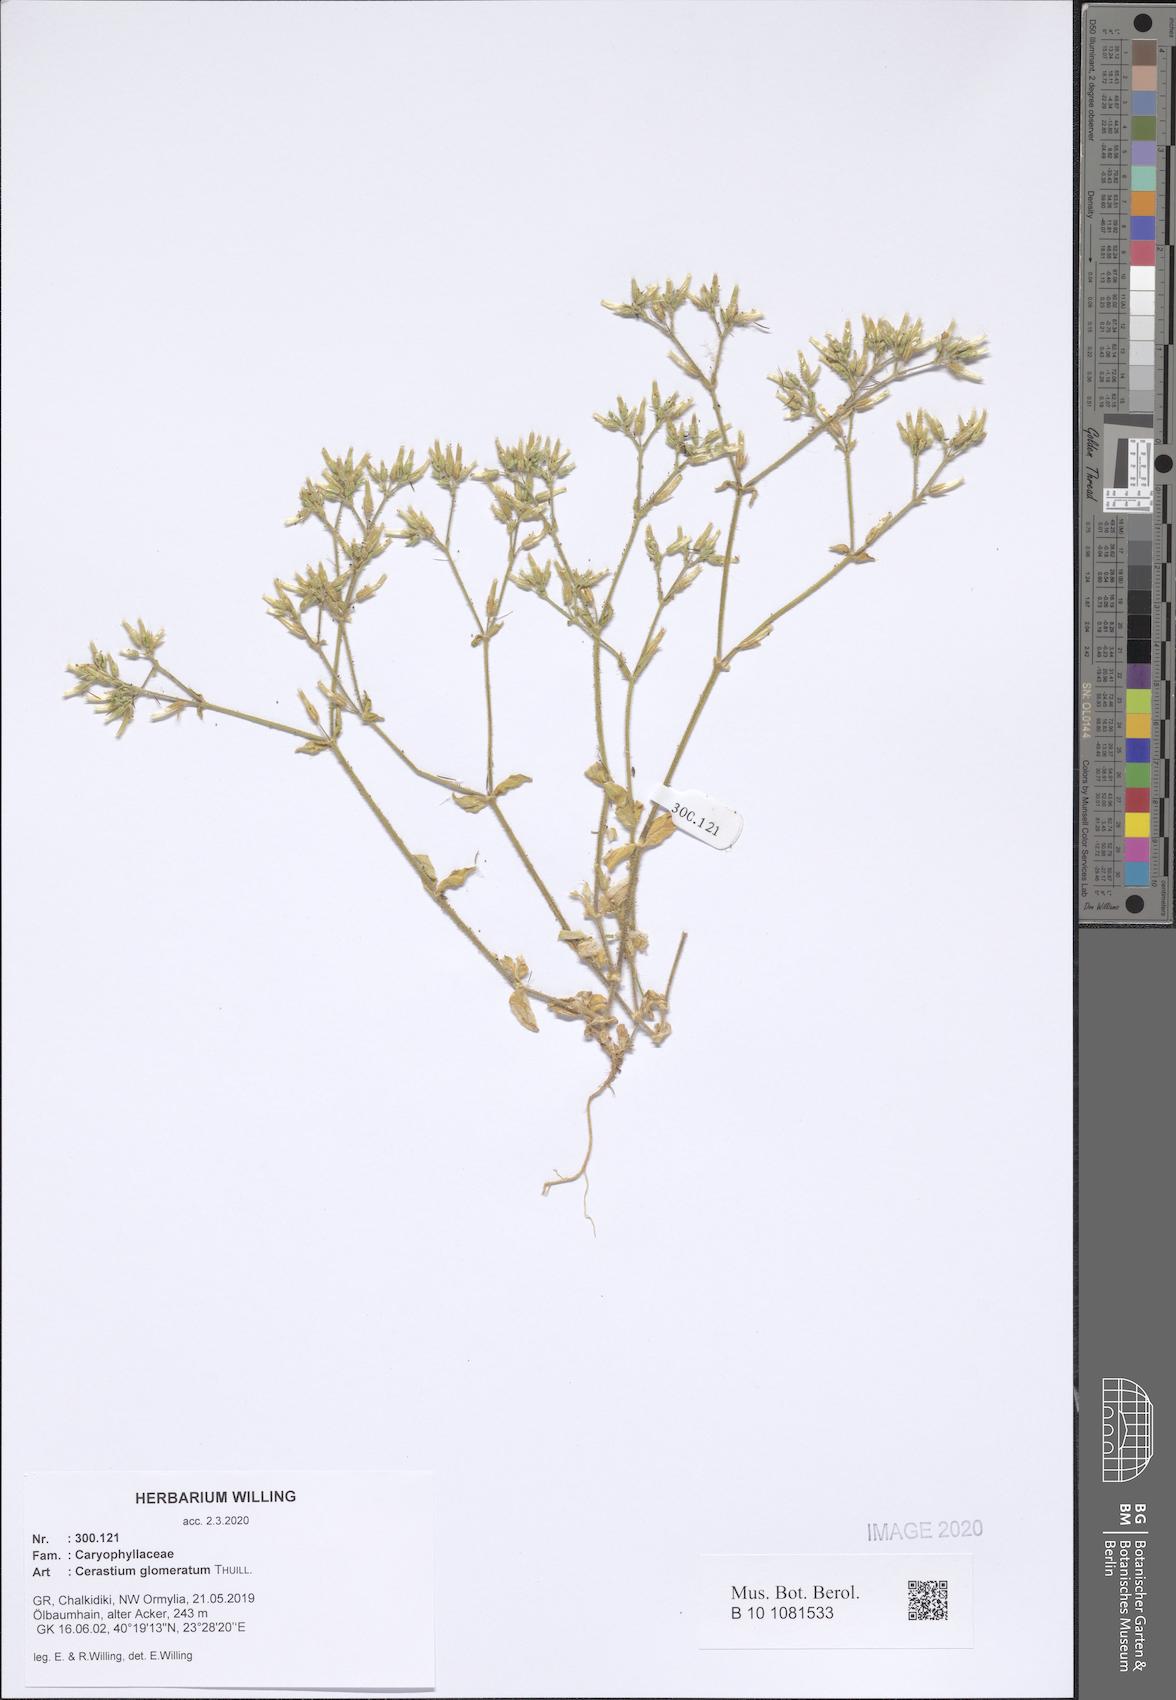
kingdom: Plantae
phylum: Tracheophyta
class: Magnoliopsida
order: Caryophyllales
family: Caryophyllaceae
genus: Cerastium
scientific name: Cerastium glomeratum
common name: Sticky chickweed
